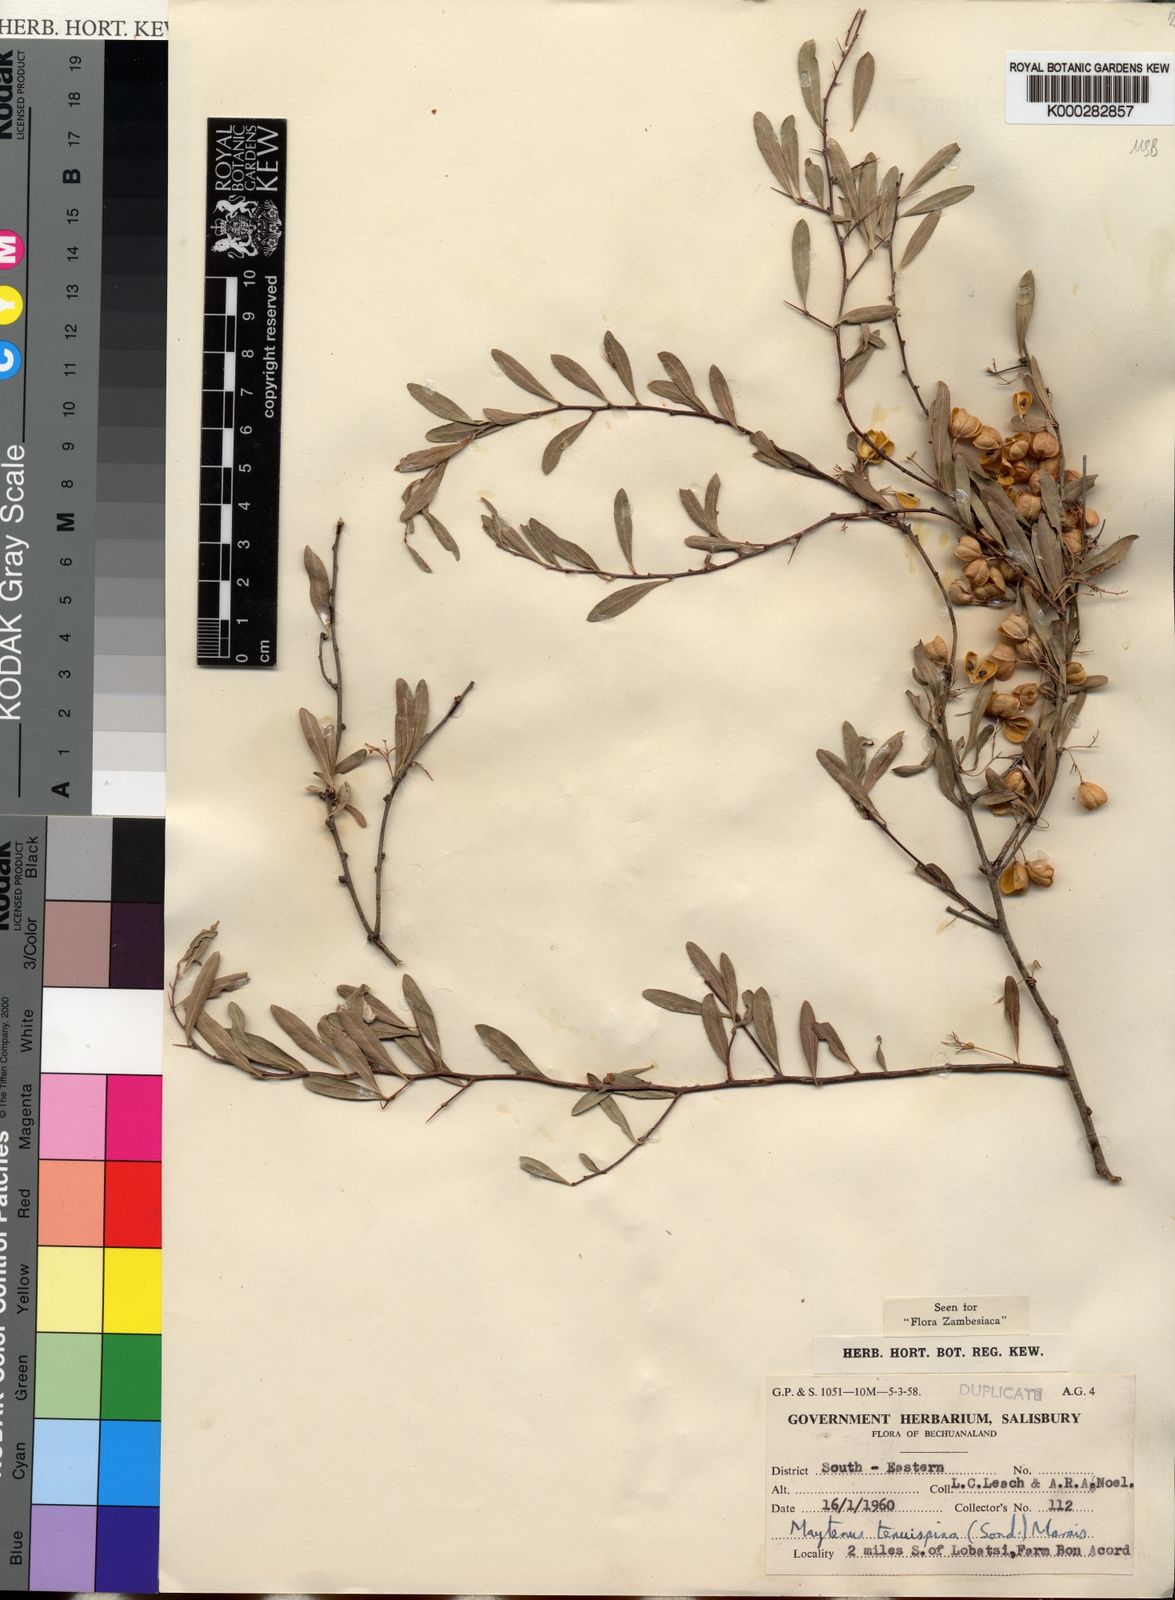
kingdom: Plantae
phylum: Tracheophyta
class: Magnoliopsida
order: Celastrales
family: Celastraceae
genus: Gymnosporia
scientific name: Gymnosporia tenuispina
